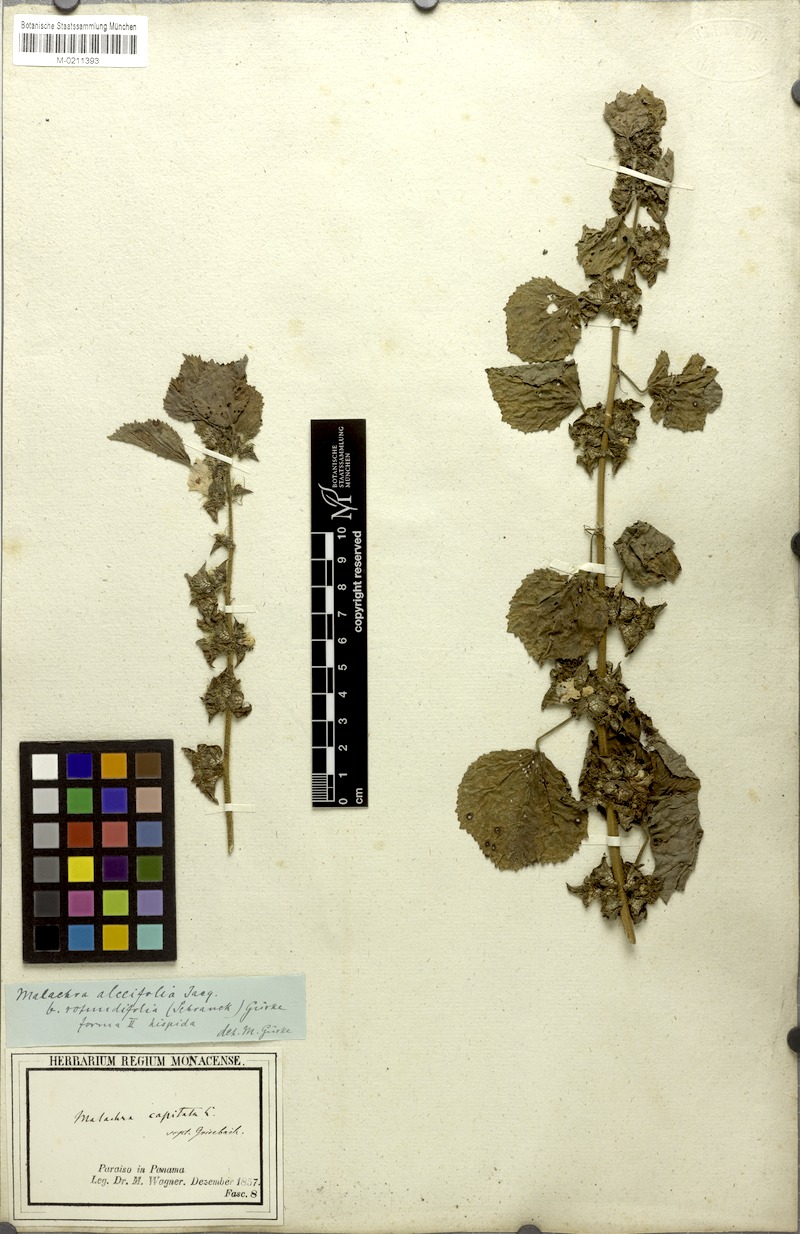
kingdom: Plantae
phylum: Tracheophyta
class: Magnoliopsida
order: Malvales
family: Malvaceae
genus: Malachra
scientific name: Malachra alceifolia
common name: Yellow leafbract
